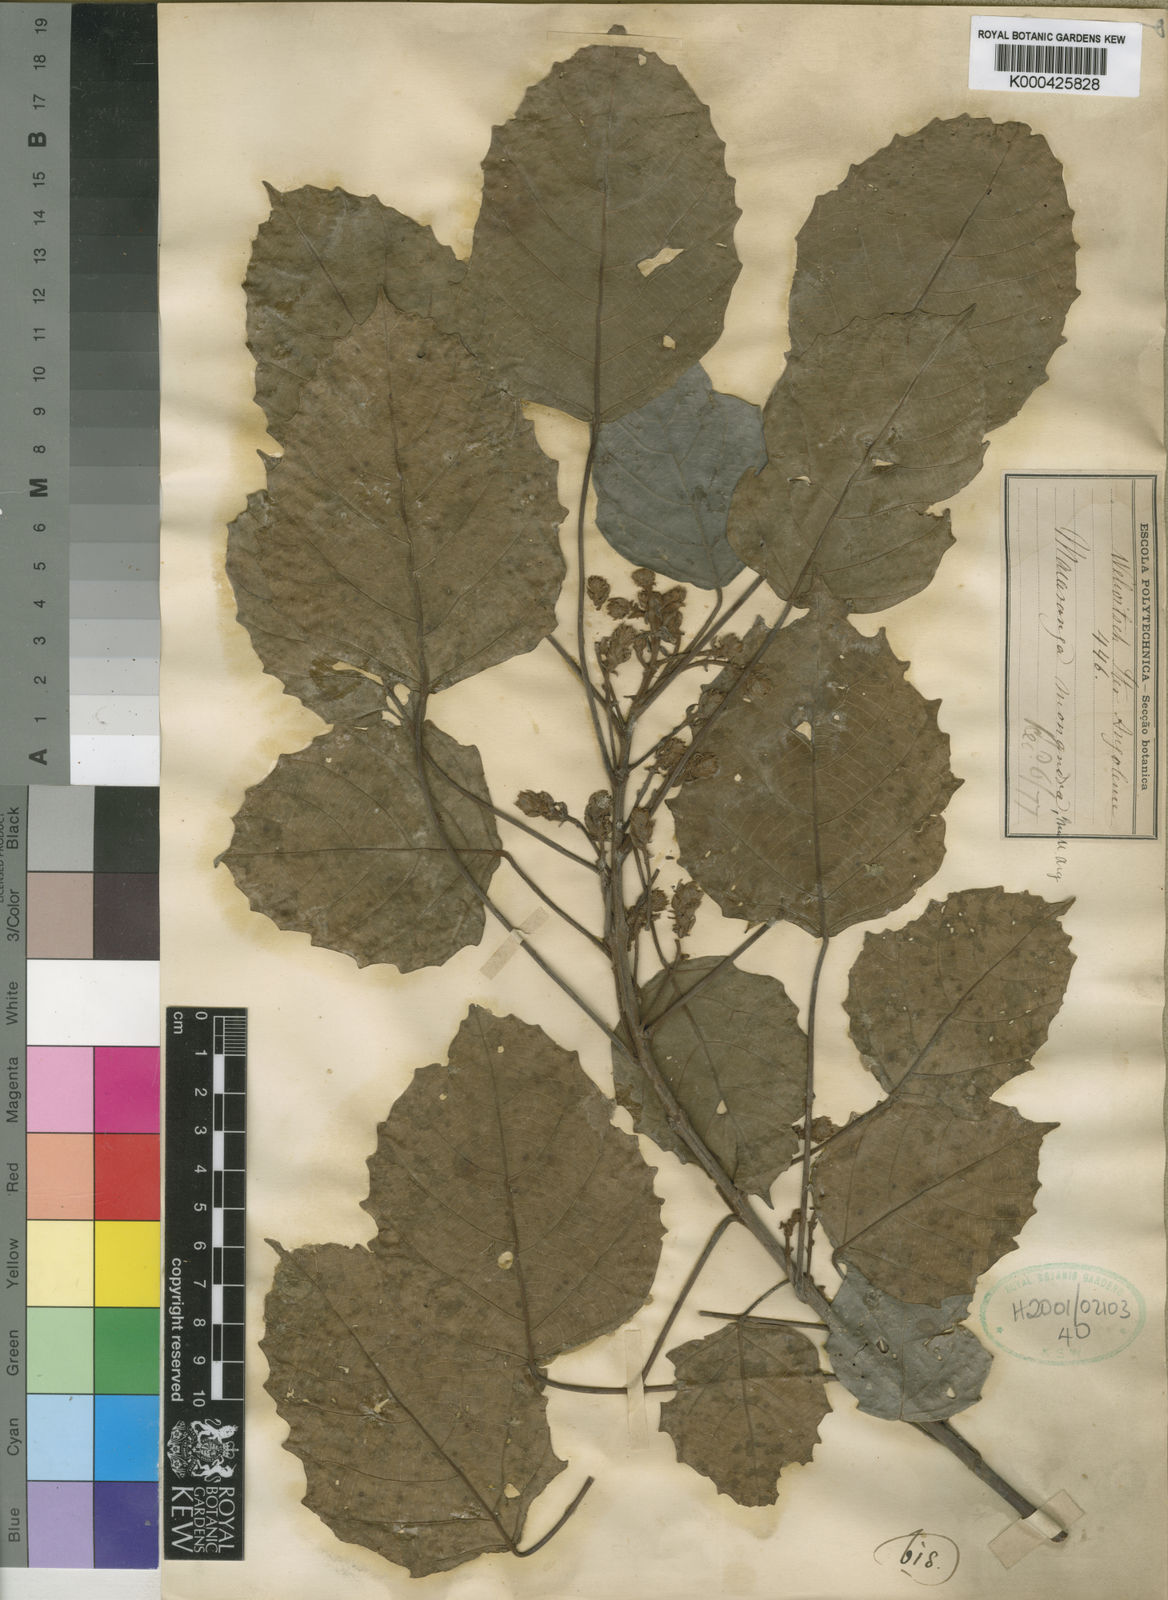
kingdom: Plantae
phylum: Tracheophyta
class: Magnoliopsida
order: Malpighiales
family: Euphorbiaceae
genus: Macaranga
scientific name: Macaranga
